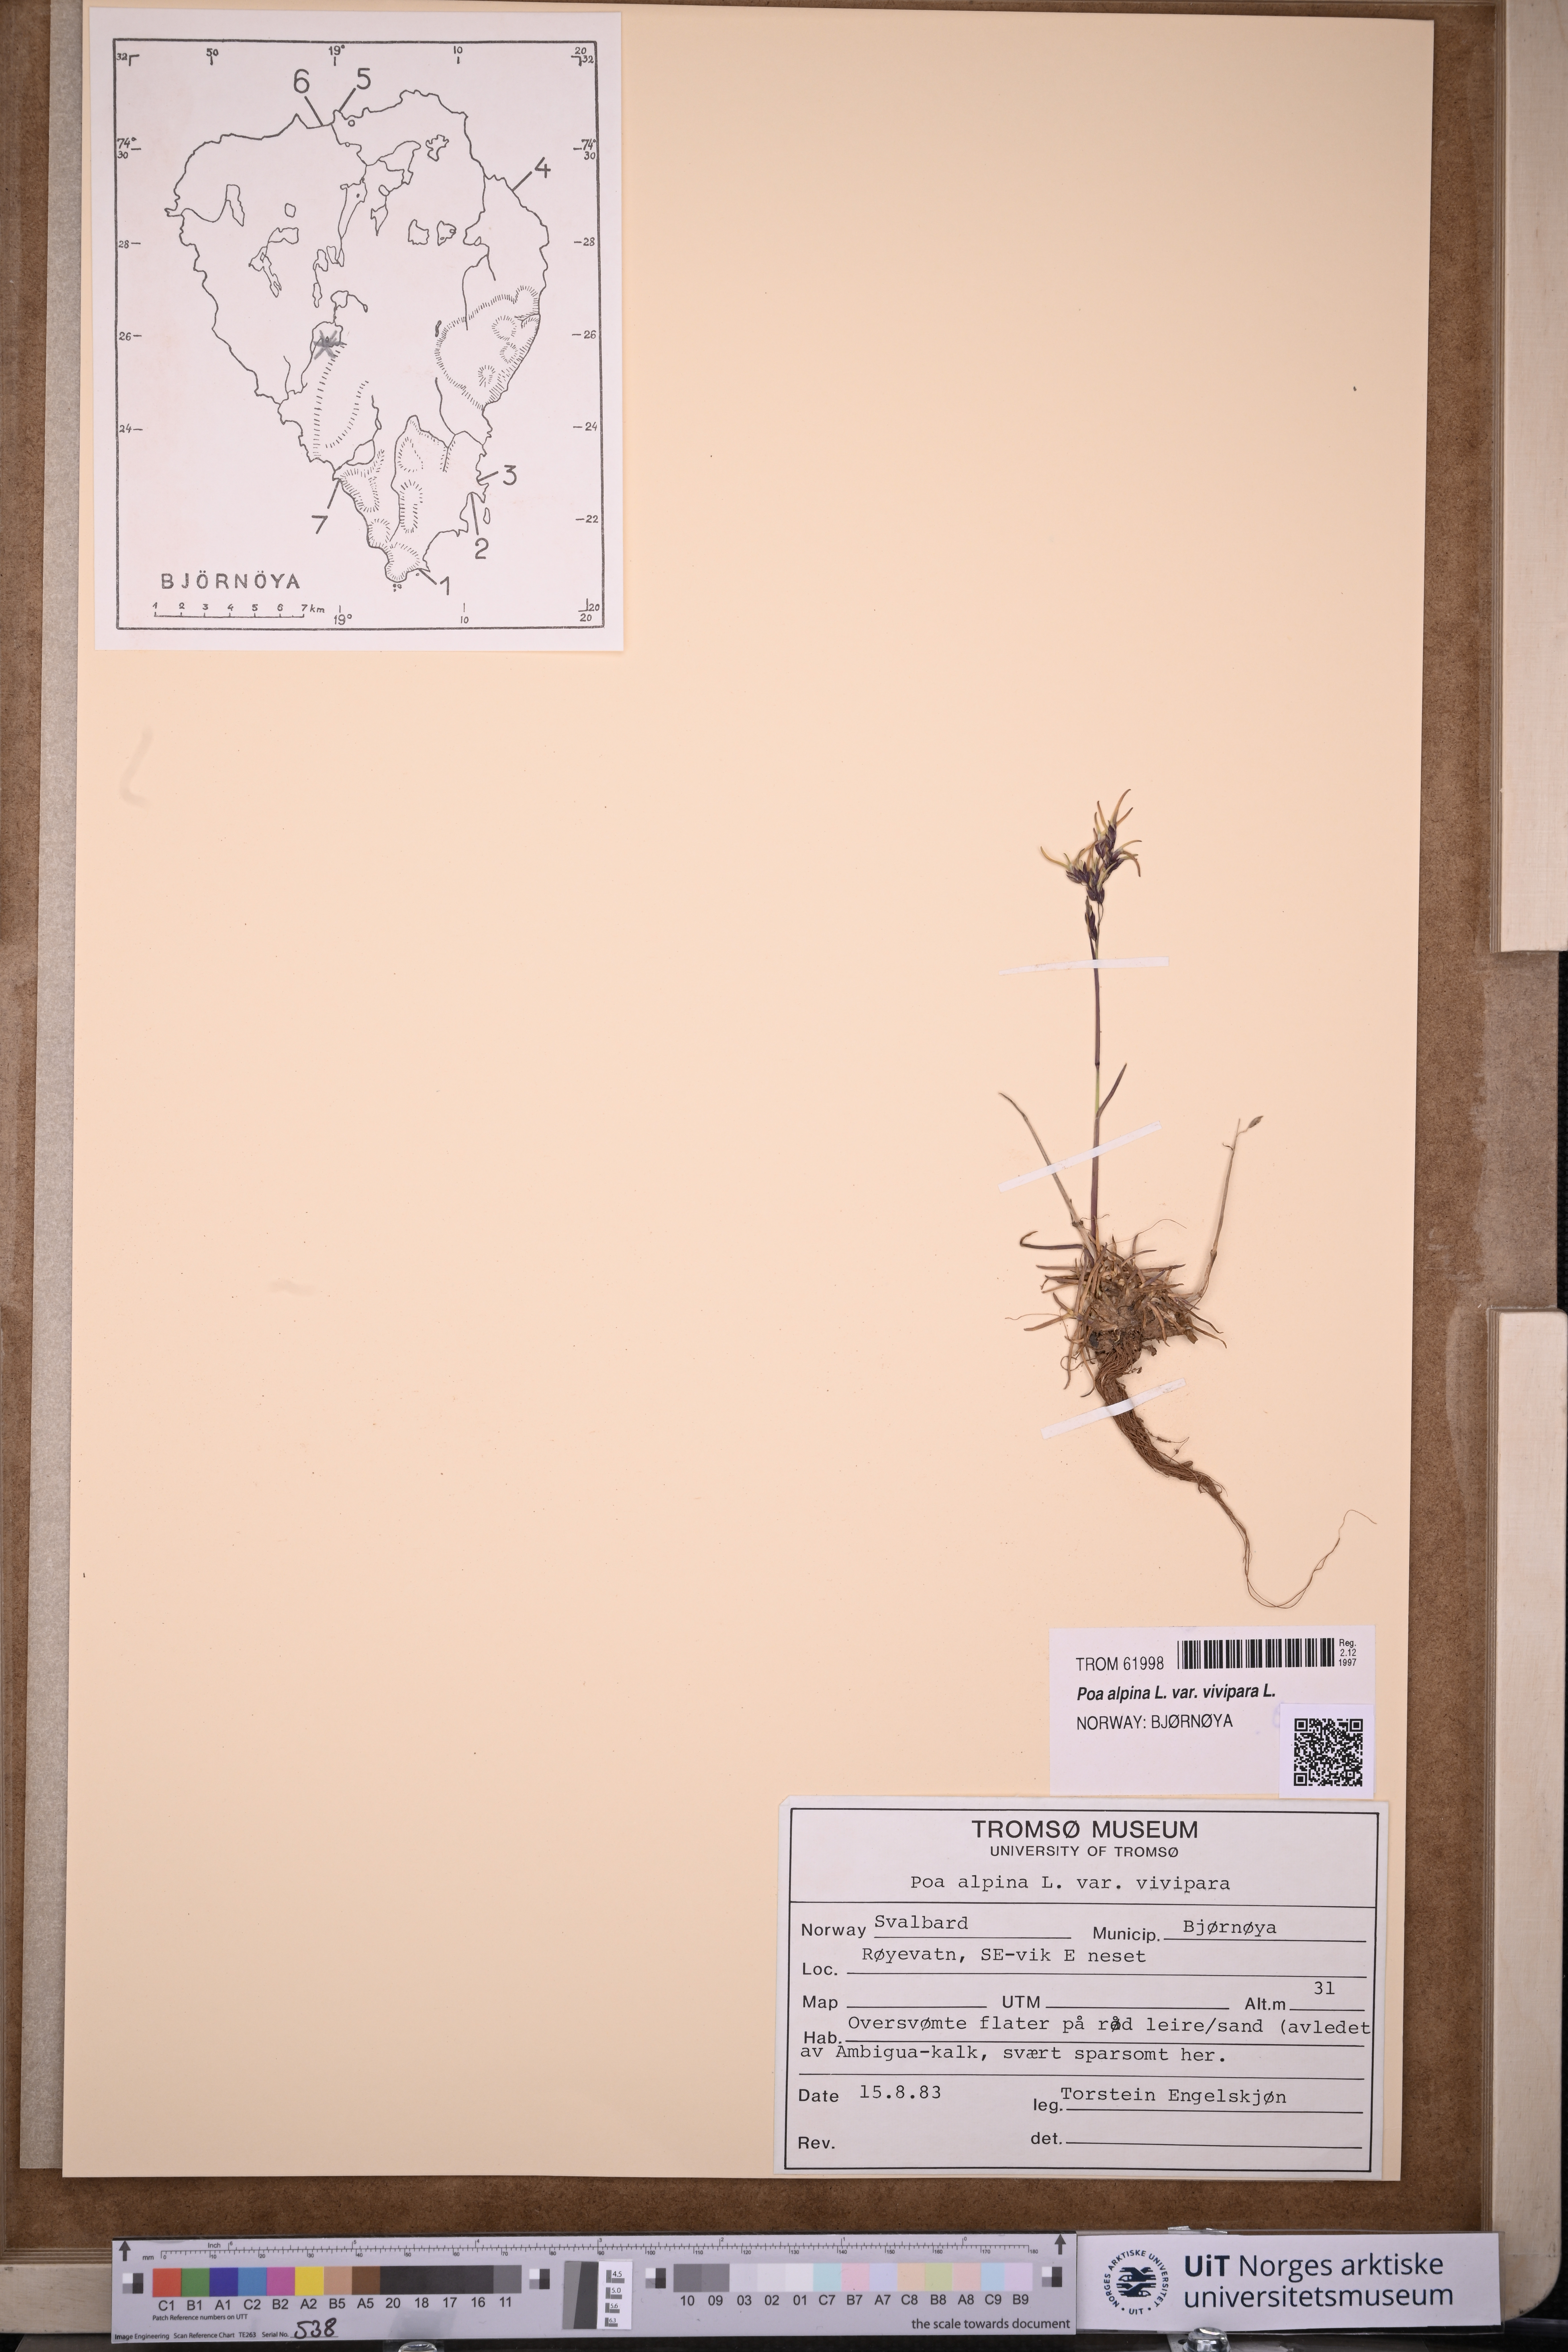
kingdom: Plantae
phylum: Tracheophyta
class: Liliopsida
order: Poales
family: Poaceae
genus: Poa
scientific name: Poa alpina
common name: Alpine bluegrass
